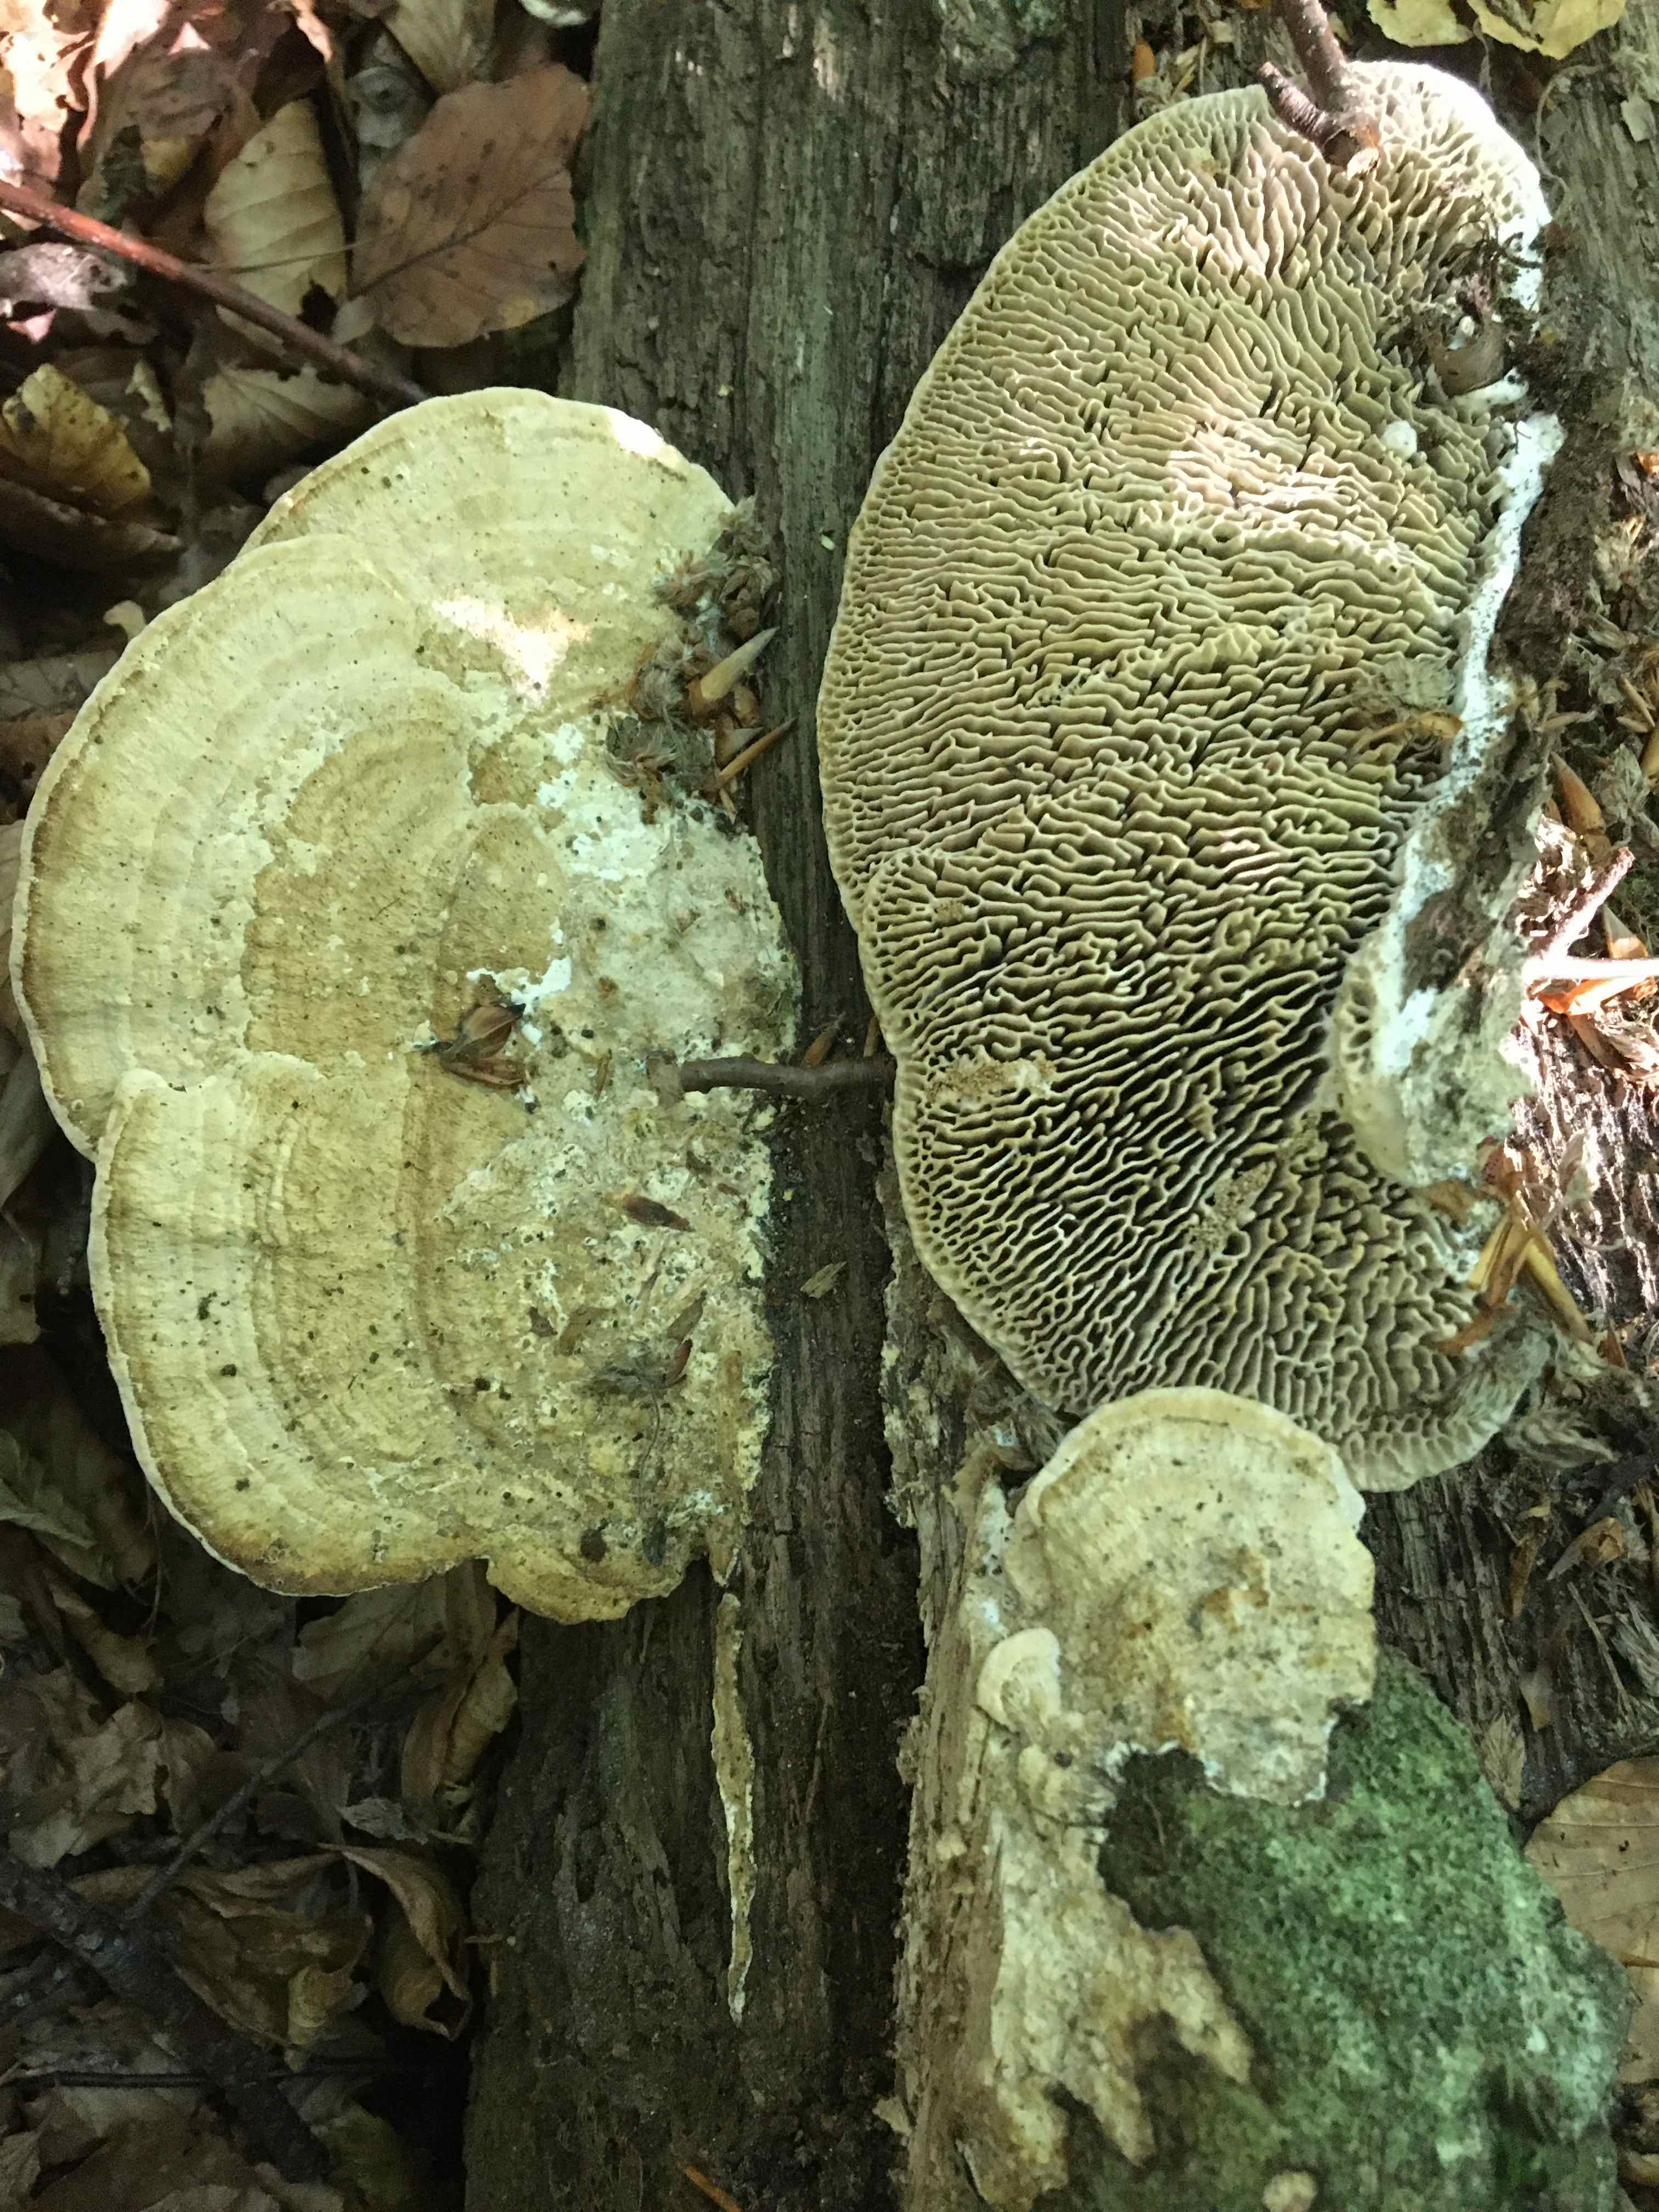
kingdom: Fungi
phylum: Basidiomycota
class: Agaricomycetes
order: Polyporales
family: Fomitopsidaceae
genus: Daedalea
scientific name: Daedalea quercina
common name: ege-labyrintsvamp
